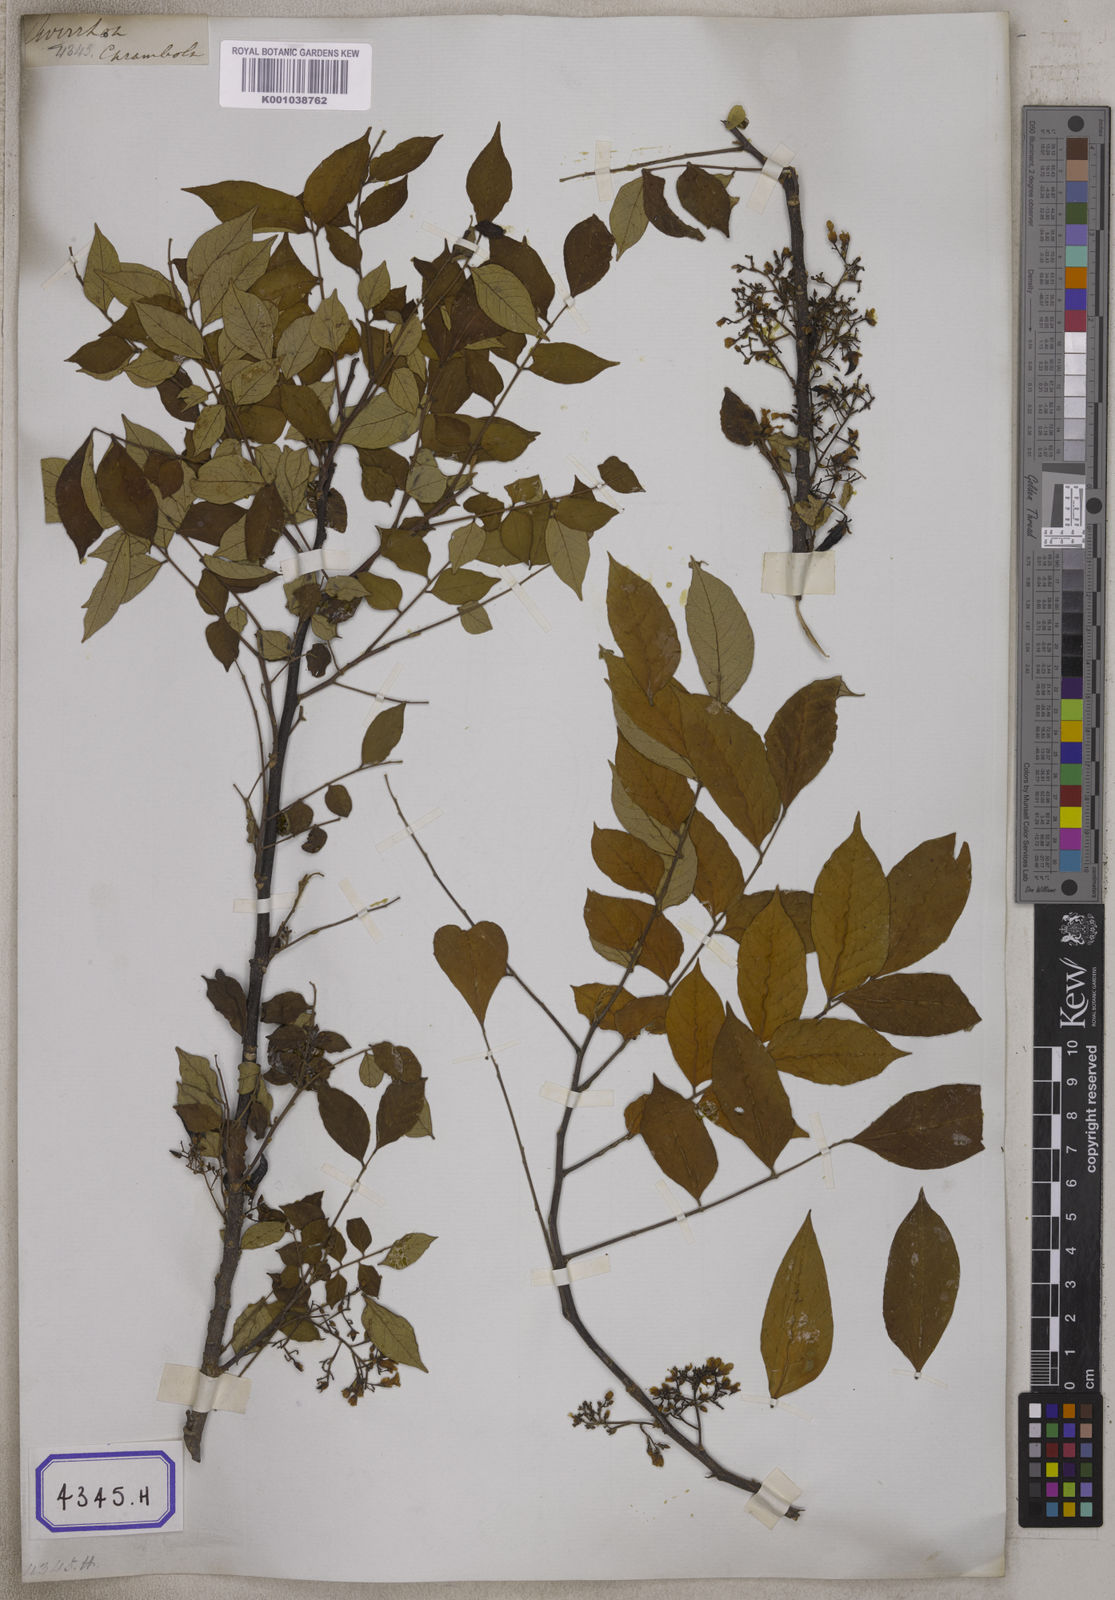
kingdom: Plantae
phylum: Tracheophyta
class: Magnoliopsida
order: Oxalidales
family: Oxalidaceae
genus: Averrhoa
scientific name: Averrhoa carambola
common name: Blimbing
